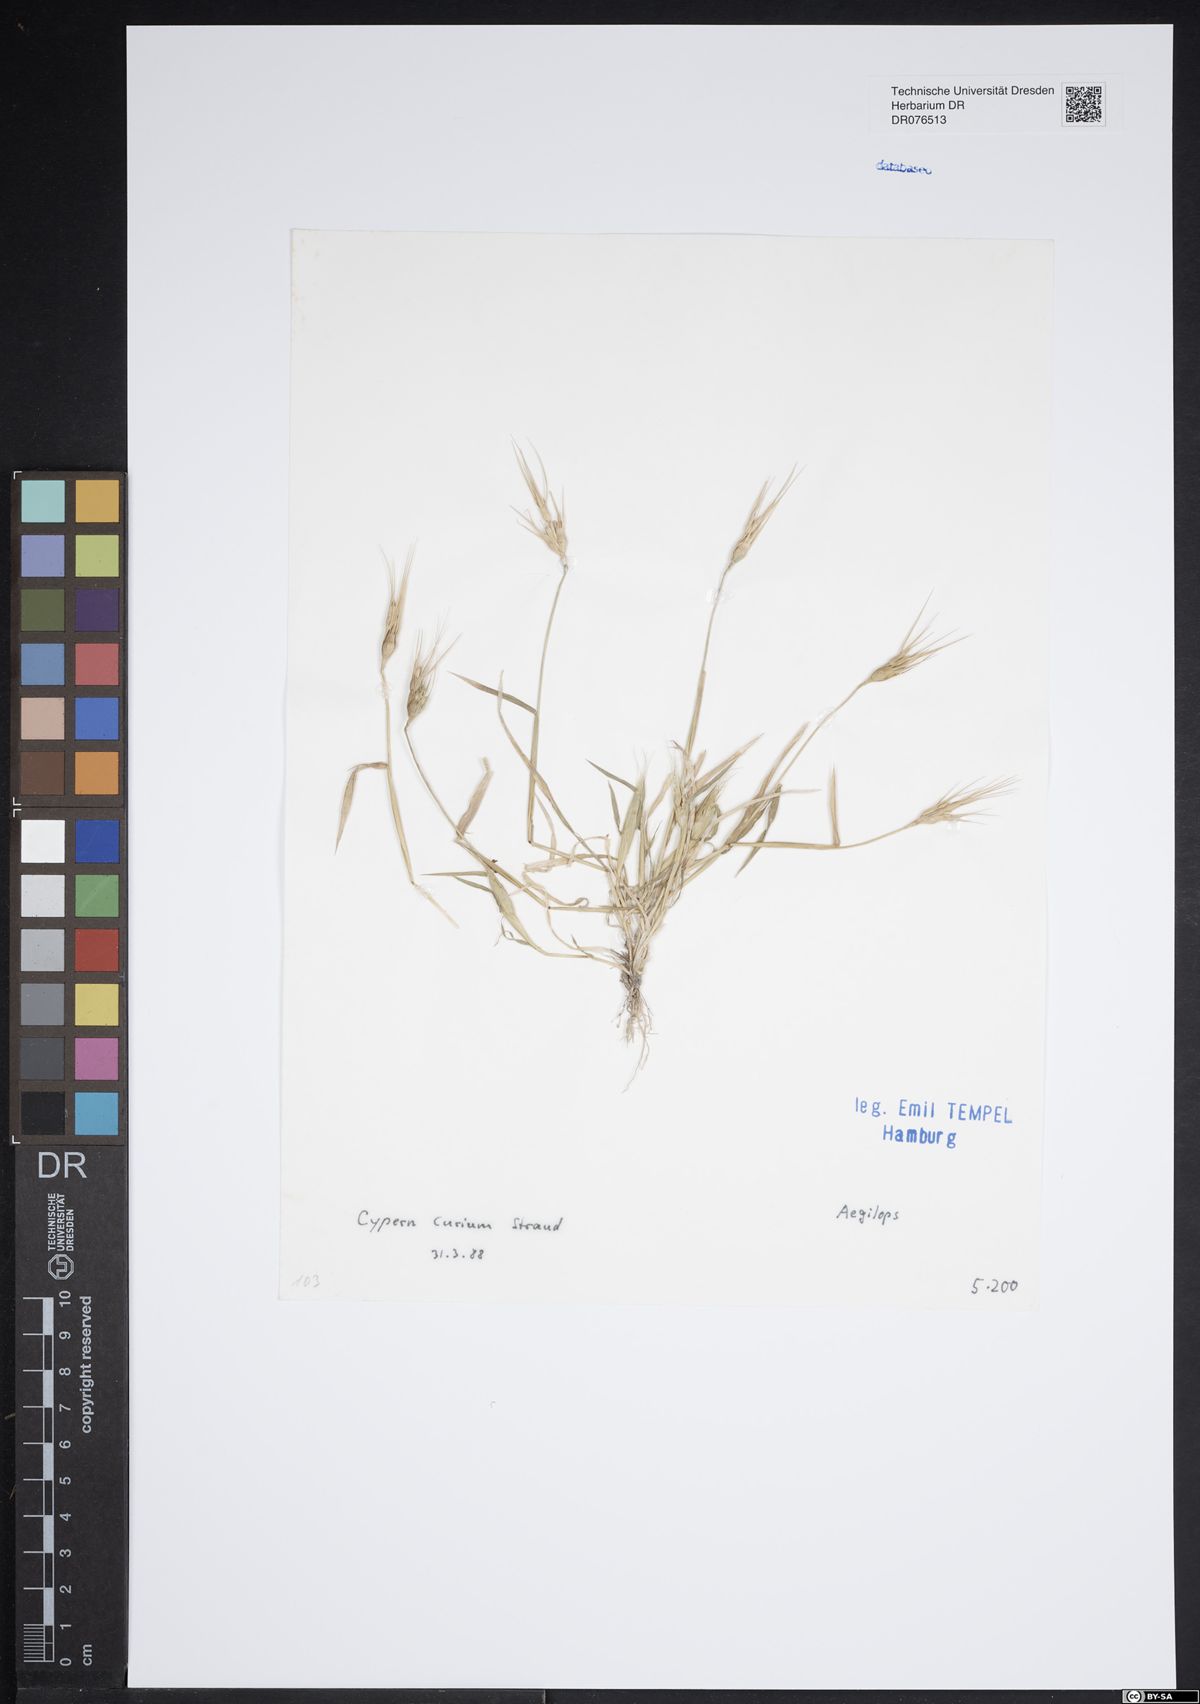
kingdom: Plantae
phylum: Tracheophyta
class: Liliopsida
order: Poales
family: Poaceae
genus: Aegilops
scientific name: Aegilops
